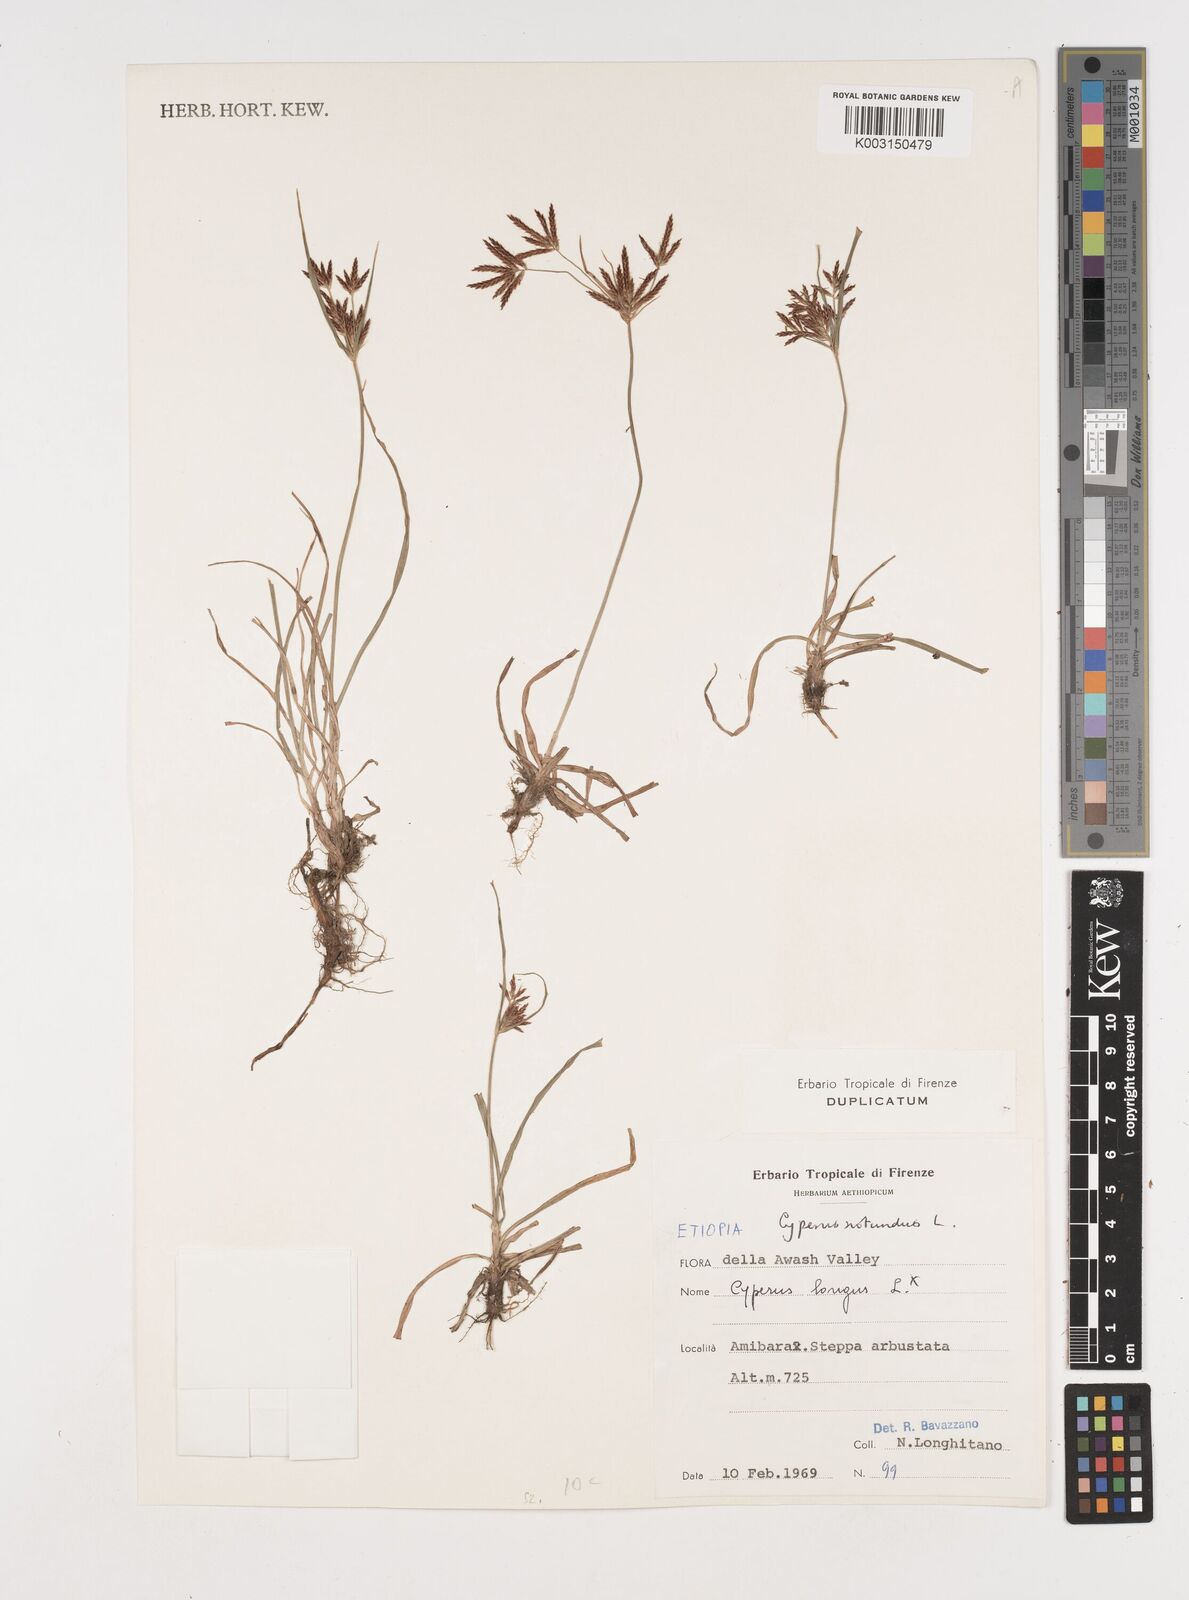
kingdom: Plantae
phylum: Tracheophyta
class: Liliopsida
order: Poales
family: Cyperaceae
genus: Cyperus
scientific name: Cyperus rotundus
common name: Nutgrass
